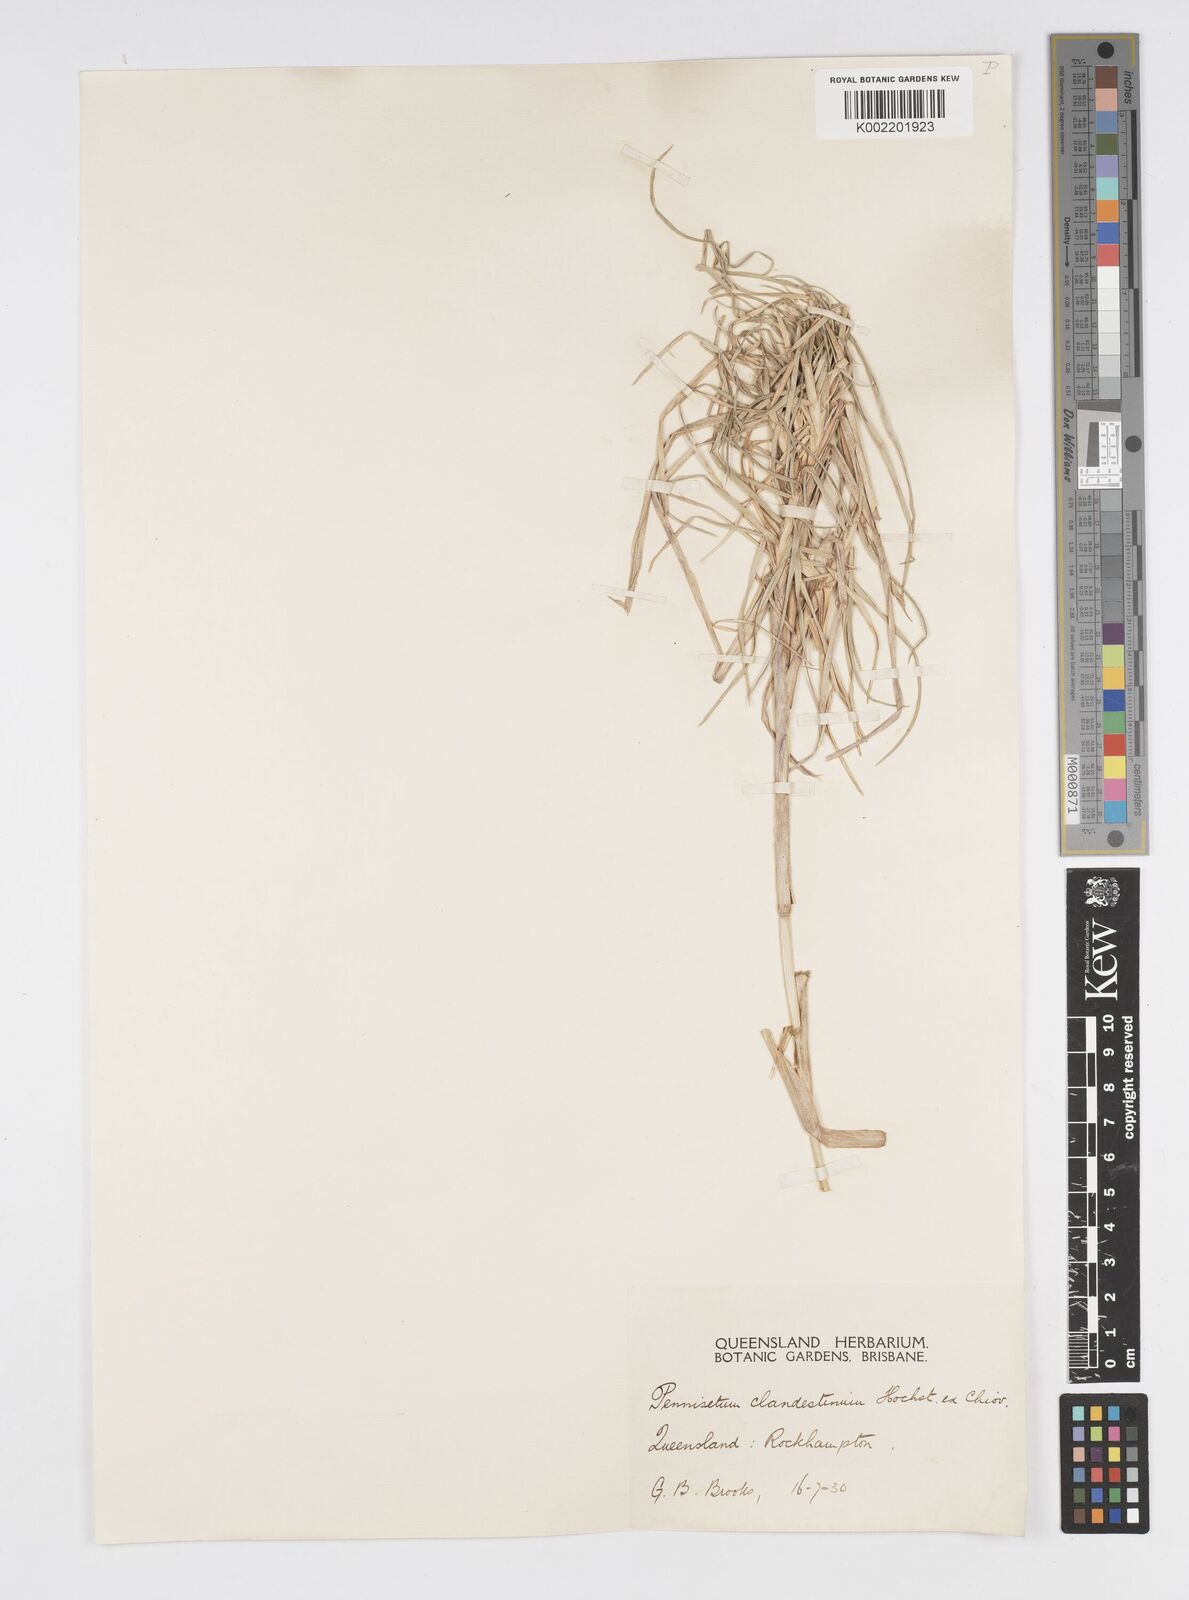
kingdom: Plantae
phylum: Tracheophyta
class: Liliopsida
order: Poales
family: Poaceae
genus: Cenchrus
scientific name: Cenchrus clandestinus
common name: Kikuyugrass
